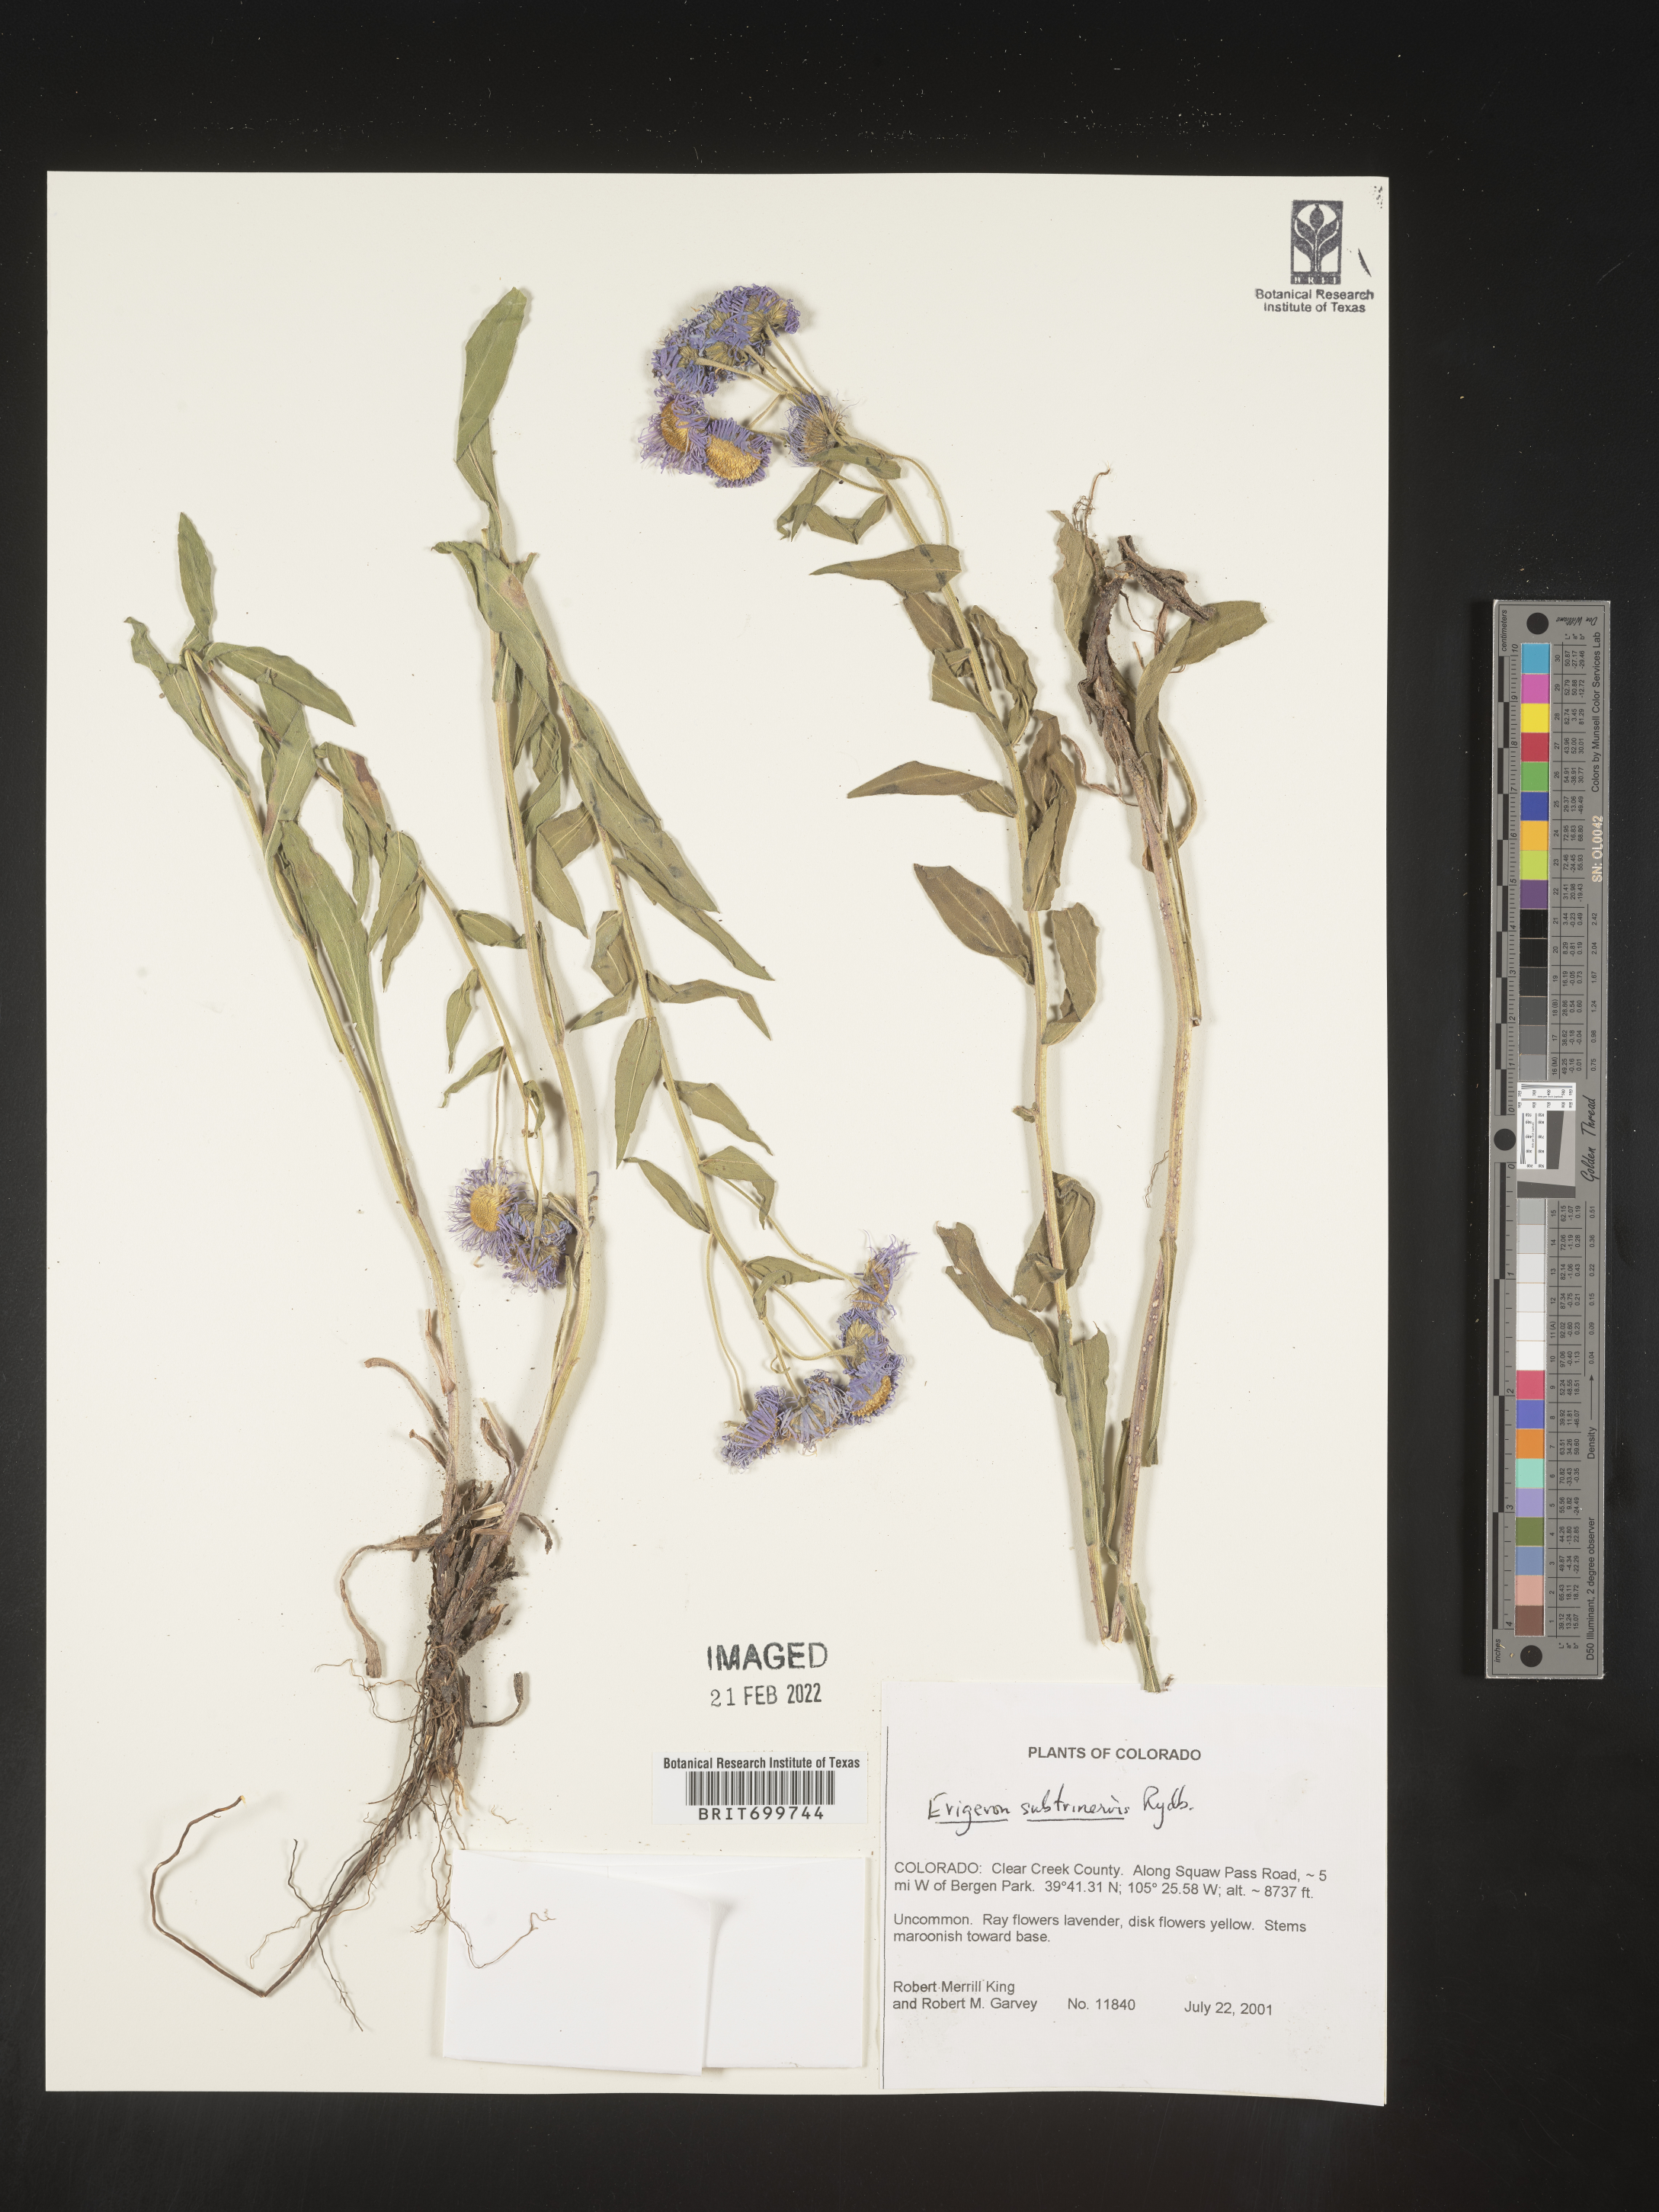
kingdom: Plantae
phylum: Tracheophyta
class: Magnoliopsida
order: Asterales
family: Asteraceae
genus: Erigeron
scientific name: Erigeron subtrinervis
